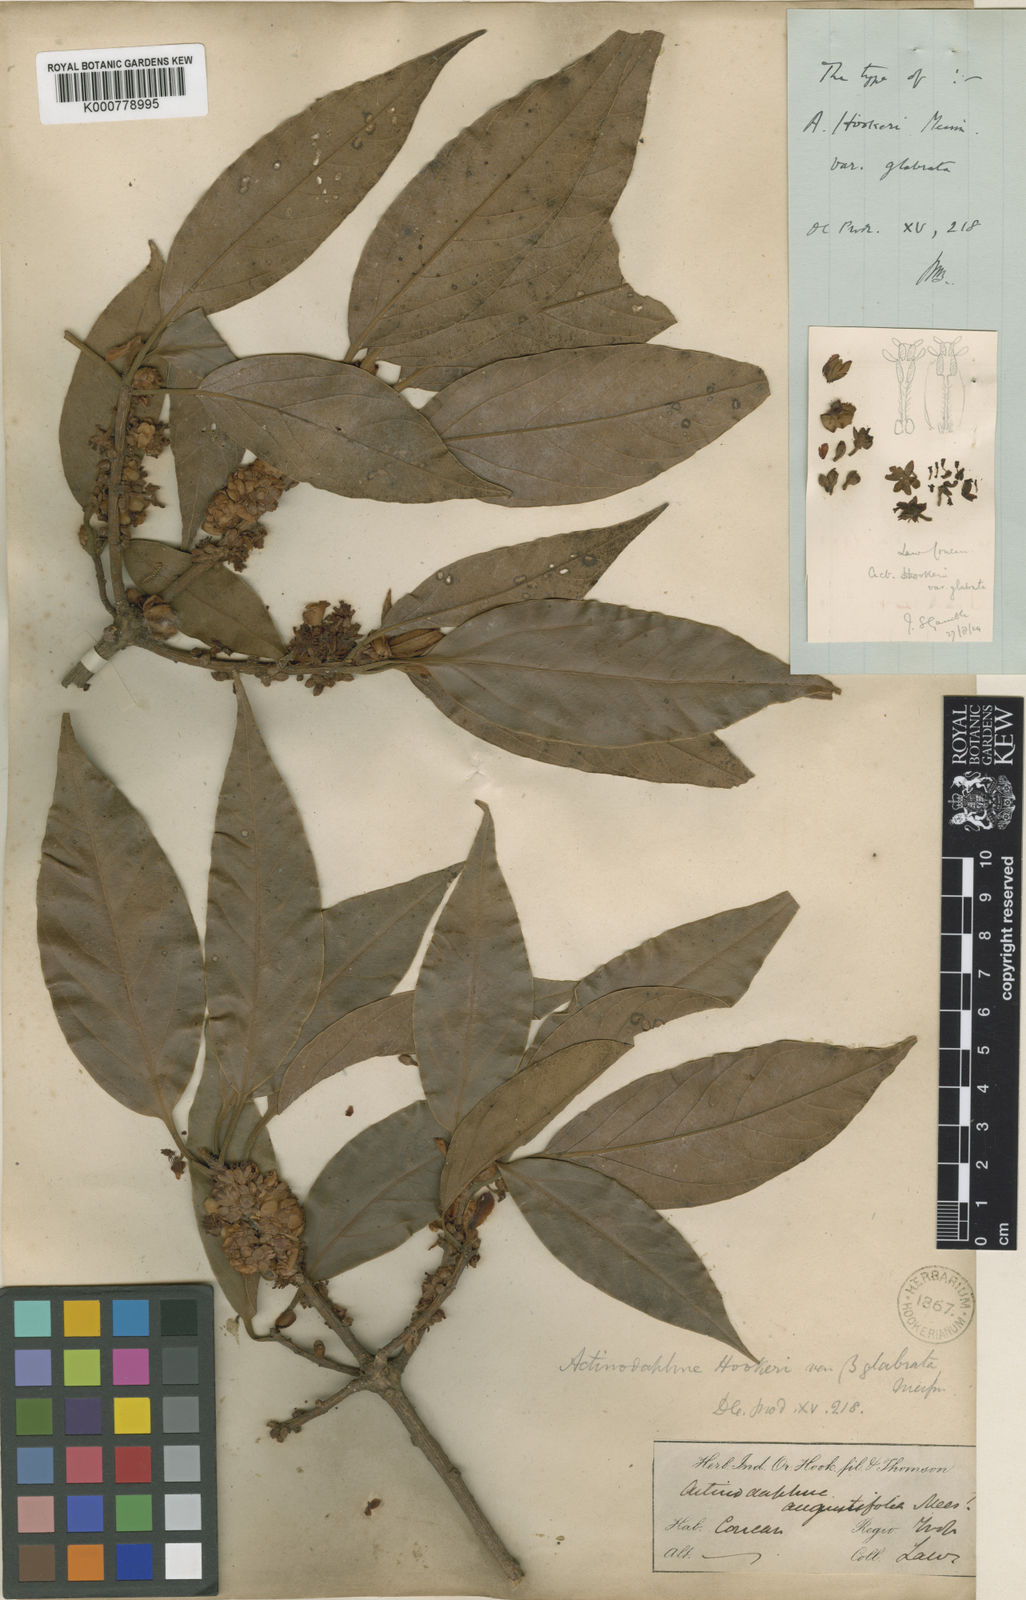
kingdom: Plantae
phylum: Tracheophyta
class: Magnoliopsida
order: Laurales
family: Lauraceae
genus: Actinodaphne
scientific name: Actinodaphne lanceolata
